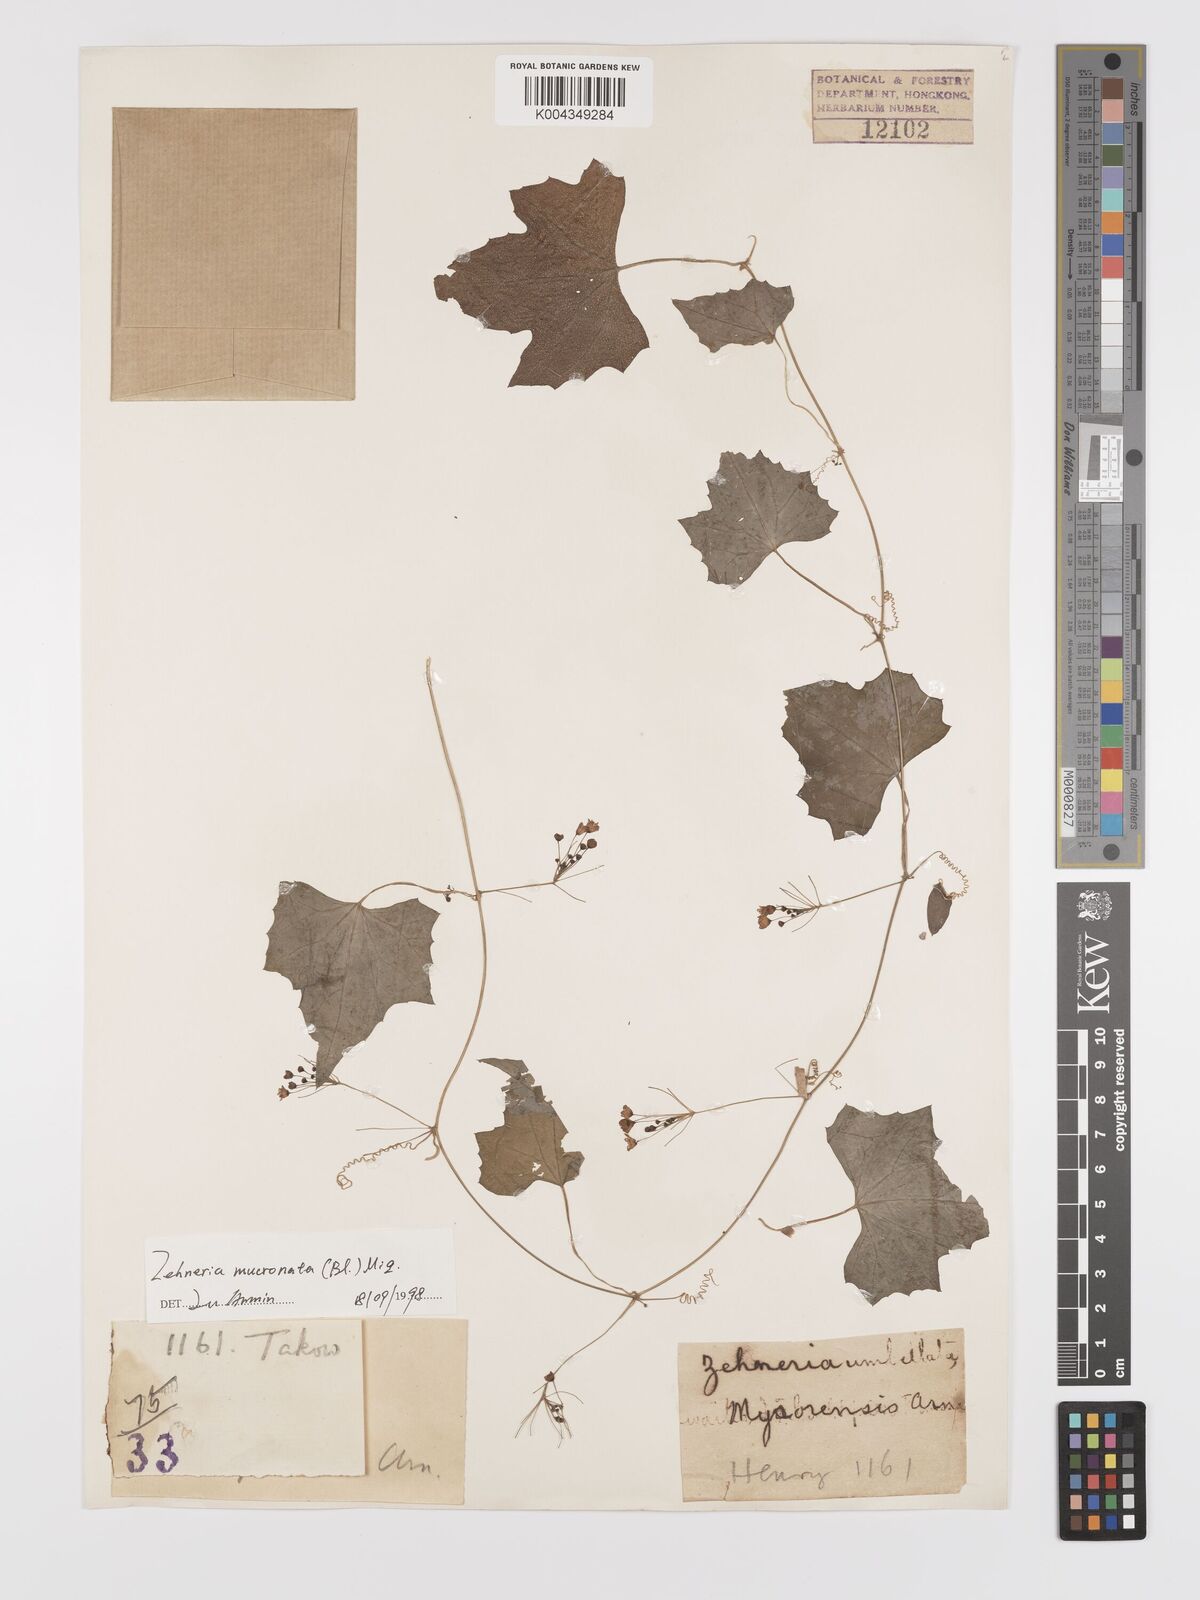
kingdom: Plantae
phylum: Tracheophyta
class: Magnoliopsida
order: Cucurbitales
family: Cucurbitaceae
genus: Zehneria
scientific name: Zehneria mucronata
